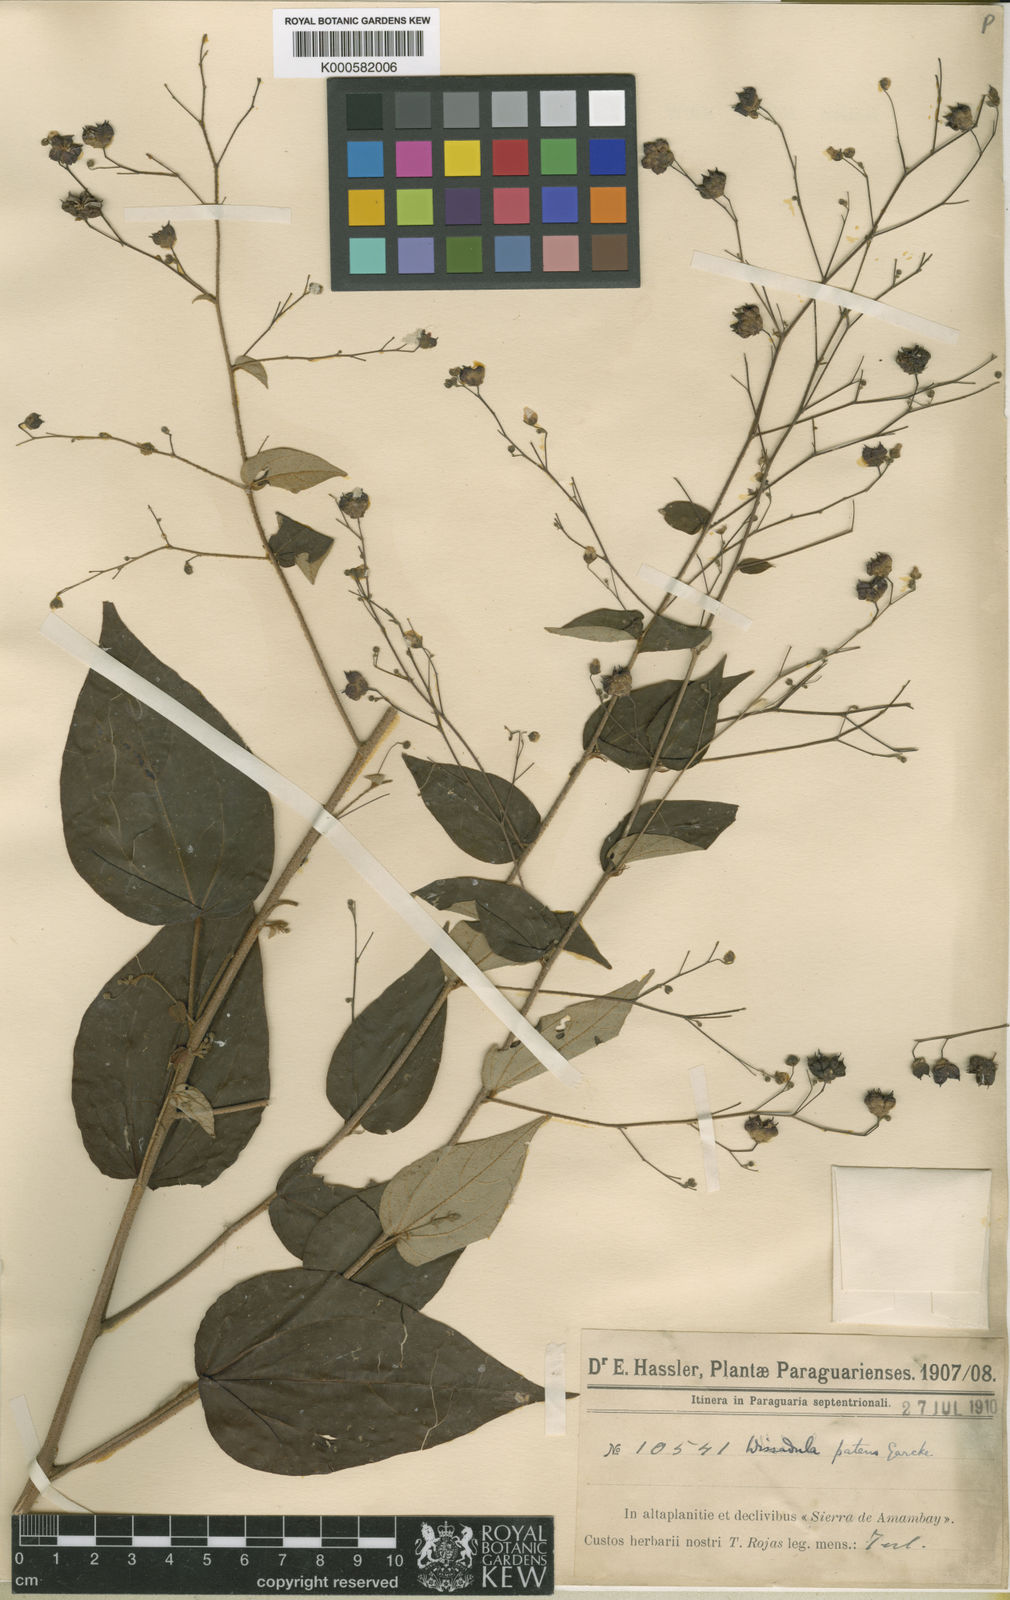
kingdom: Plantae
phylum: Tracheophyta
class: Magnoliopsida
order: Malvales
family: Malvaceae
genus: Wissadula
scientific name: Wissadula excelsior
